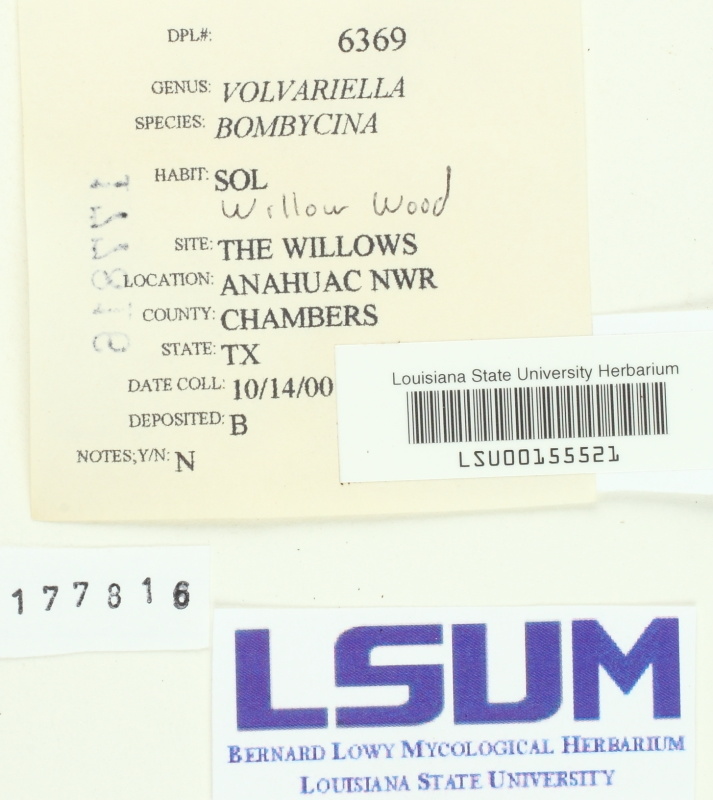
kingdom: Fungi
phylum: Basidiomycota
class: Agaricomycetes
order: Agaricales
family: Pluteaceae
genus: Volvariella
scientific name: Volvariella bombycina
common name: Silky rosegill
